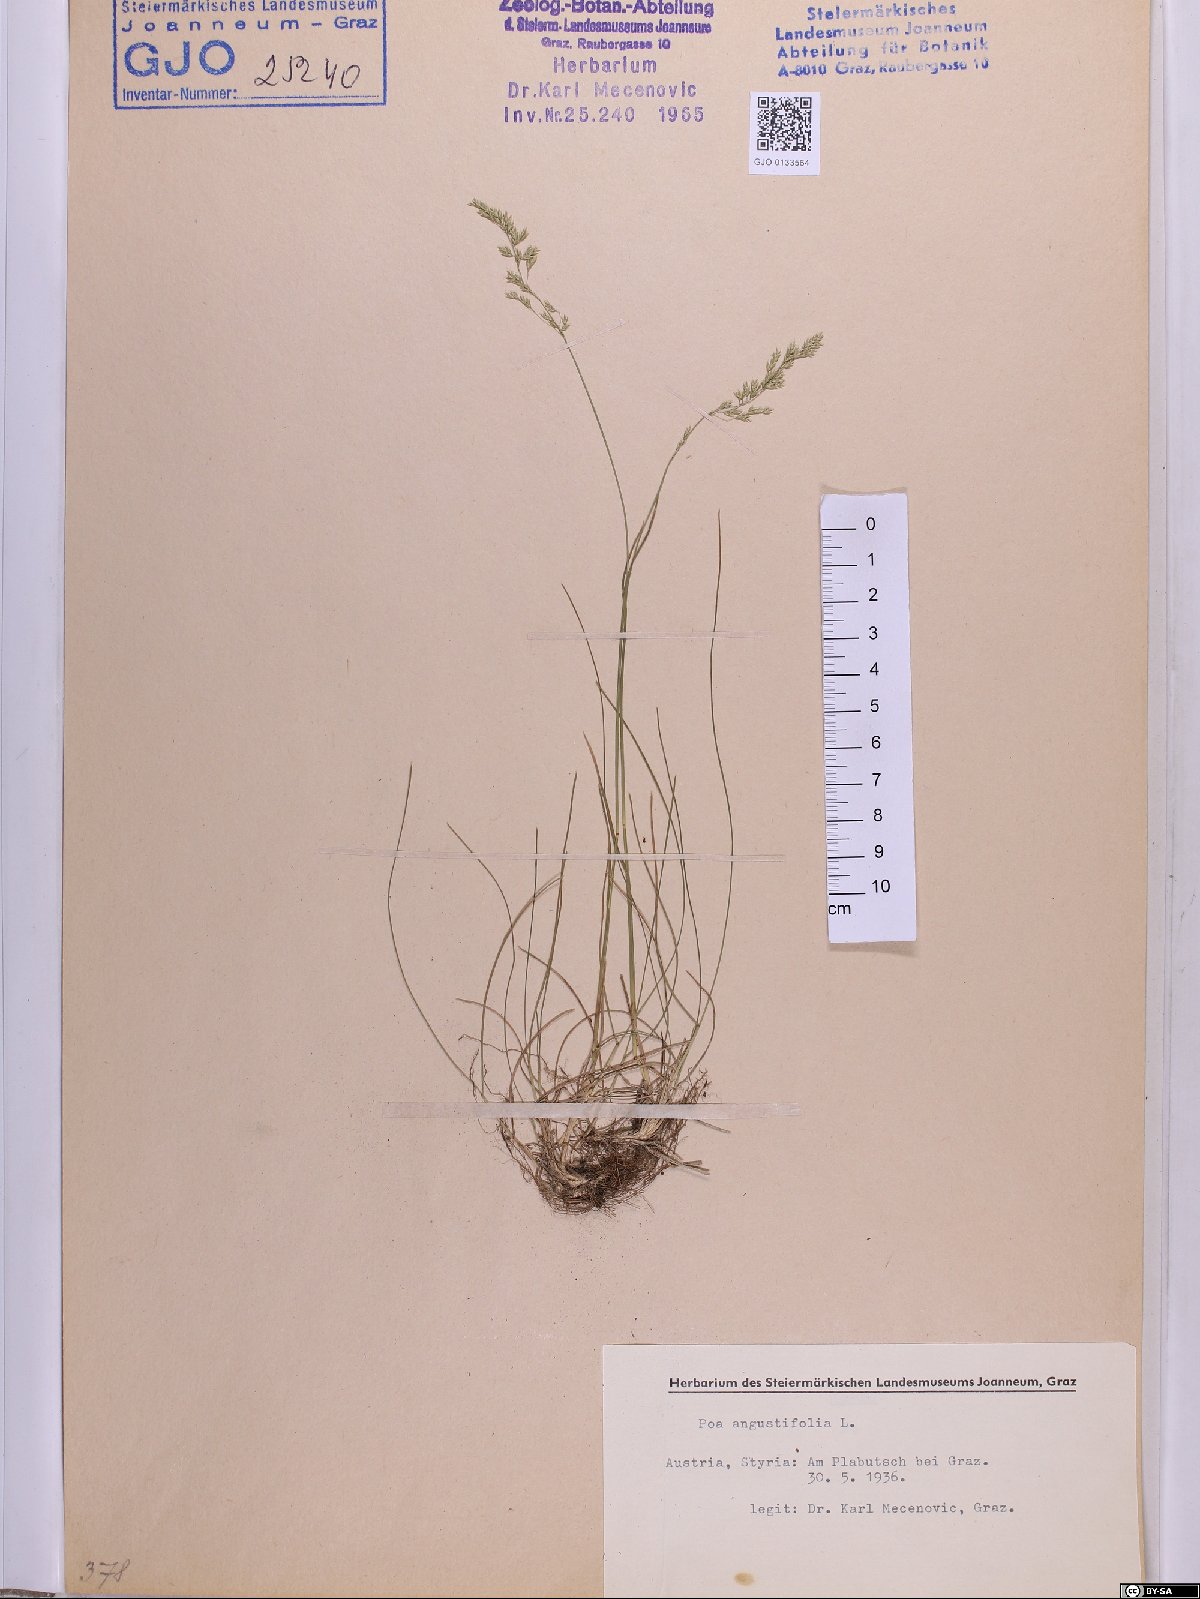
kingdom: Plantae
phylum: Tracheophyta
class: Liliopsida
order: Poales
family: Poaceae
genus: Poa
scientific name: Poa angustifolia
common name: Narrow-leaved meadow-grass
